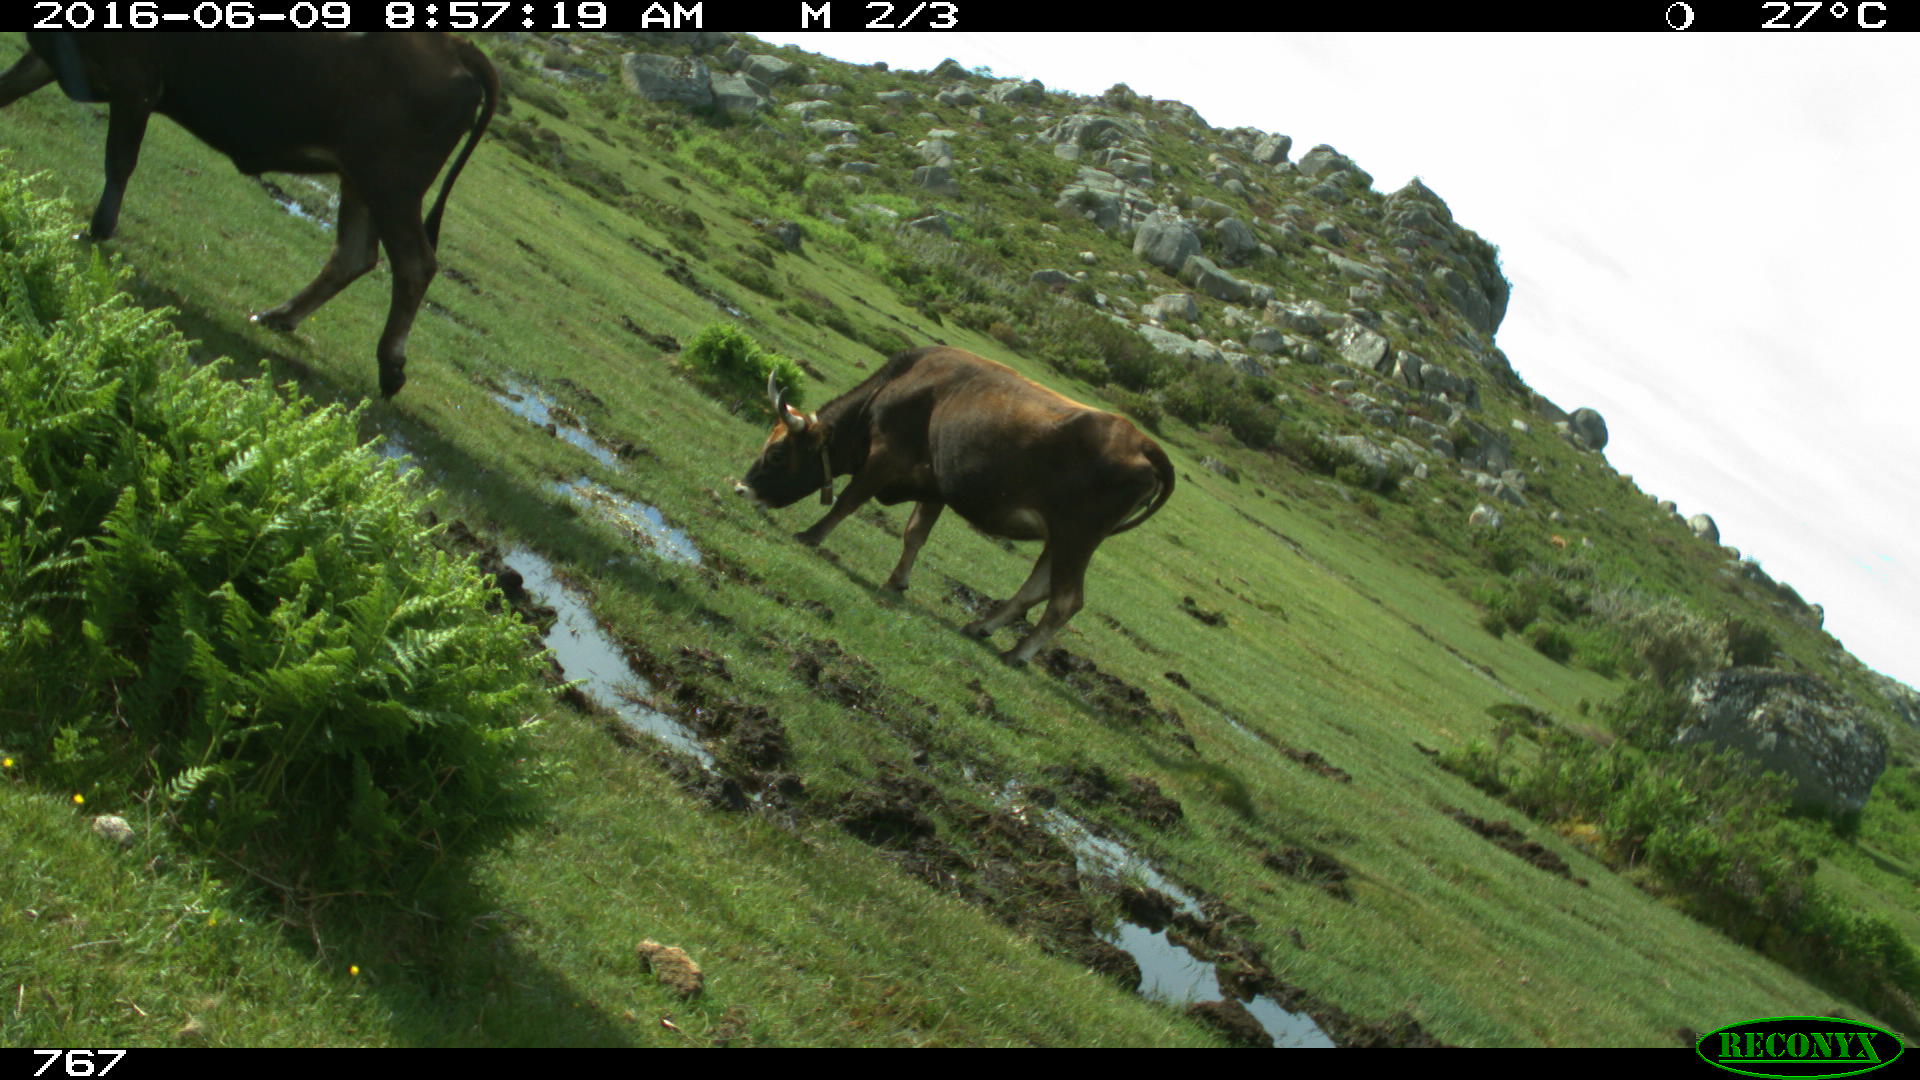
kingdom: Animalia
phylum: Chordata
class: Mammalia
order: Artiodactyla
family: Bovidae
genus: Bos
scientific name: Bos taurus
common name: Domesticated cattle
